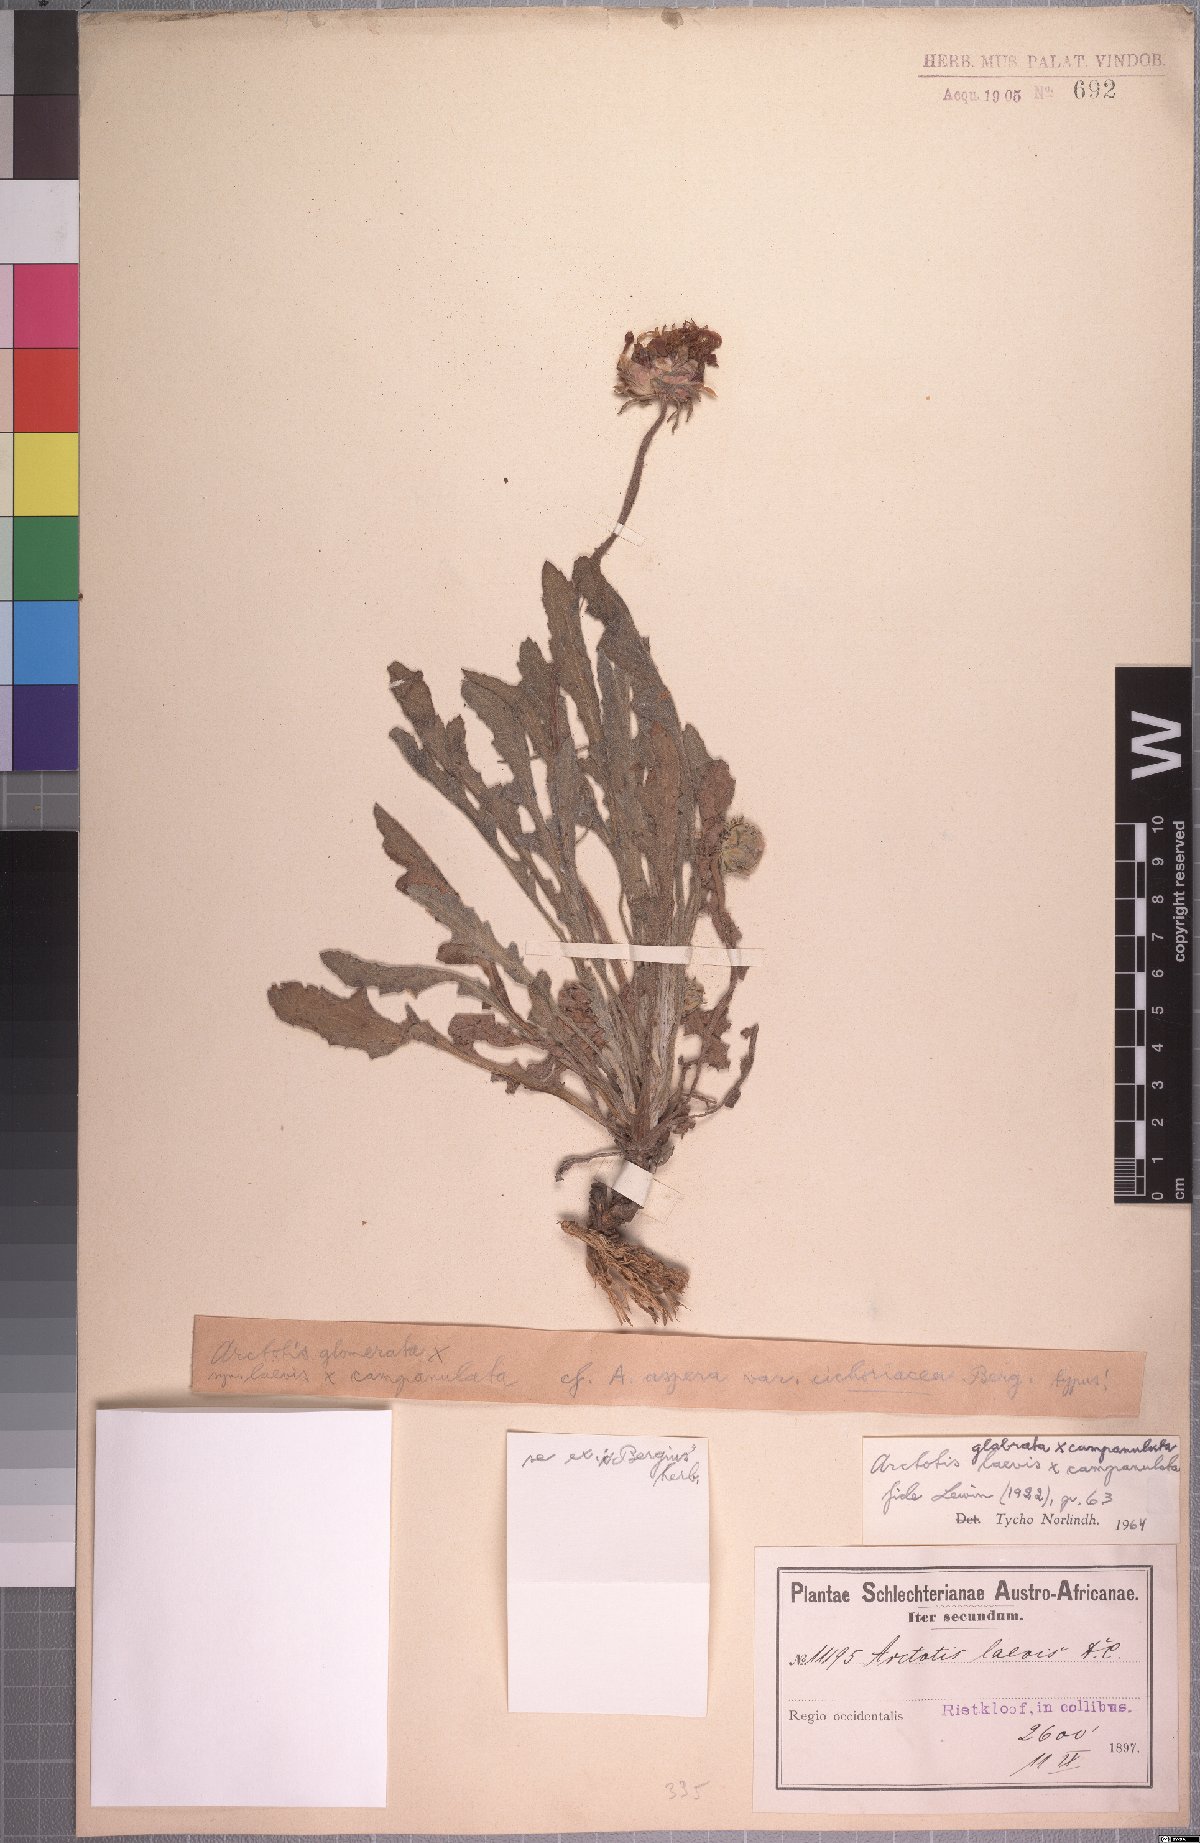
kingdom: Plantae
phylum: Tracheophyta
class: Magnoliopsida
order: Asterales
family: Asteraceae
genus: Arctotis
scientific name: Arctotis laciniata
